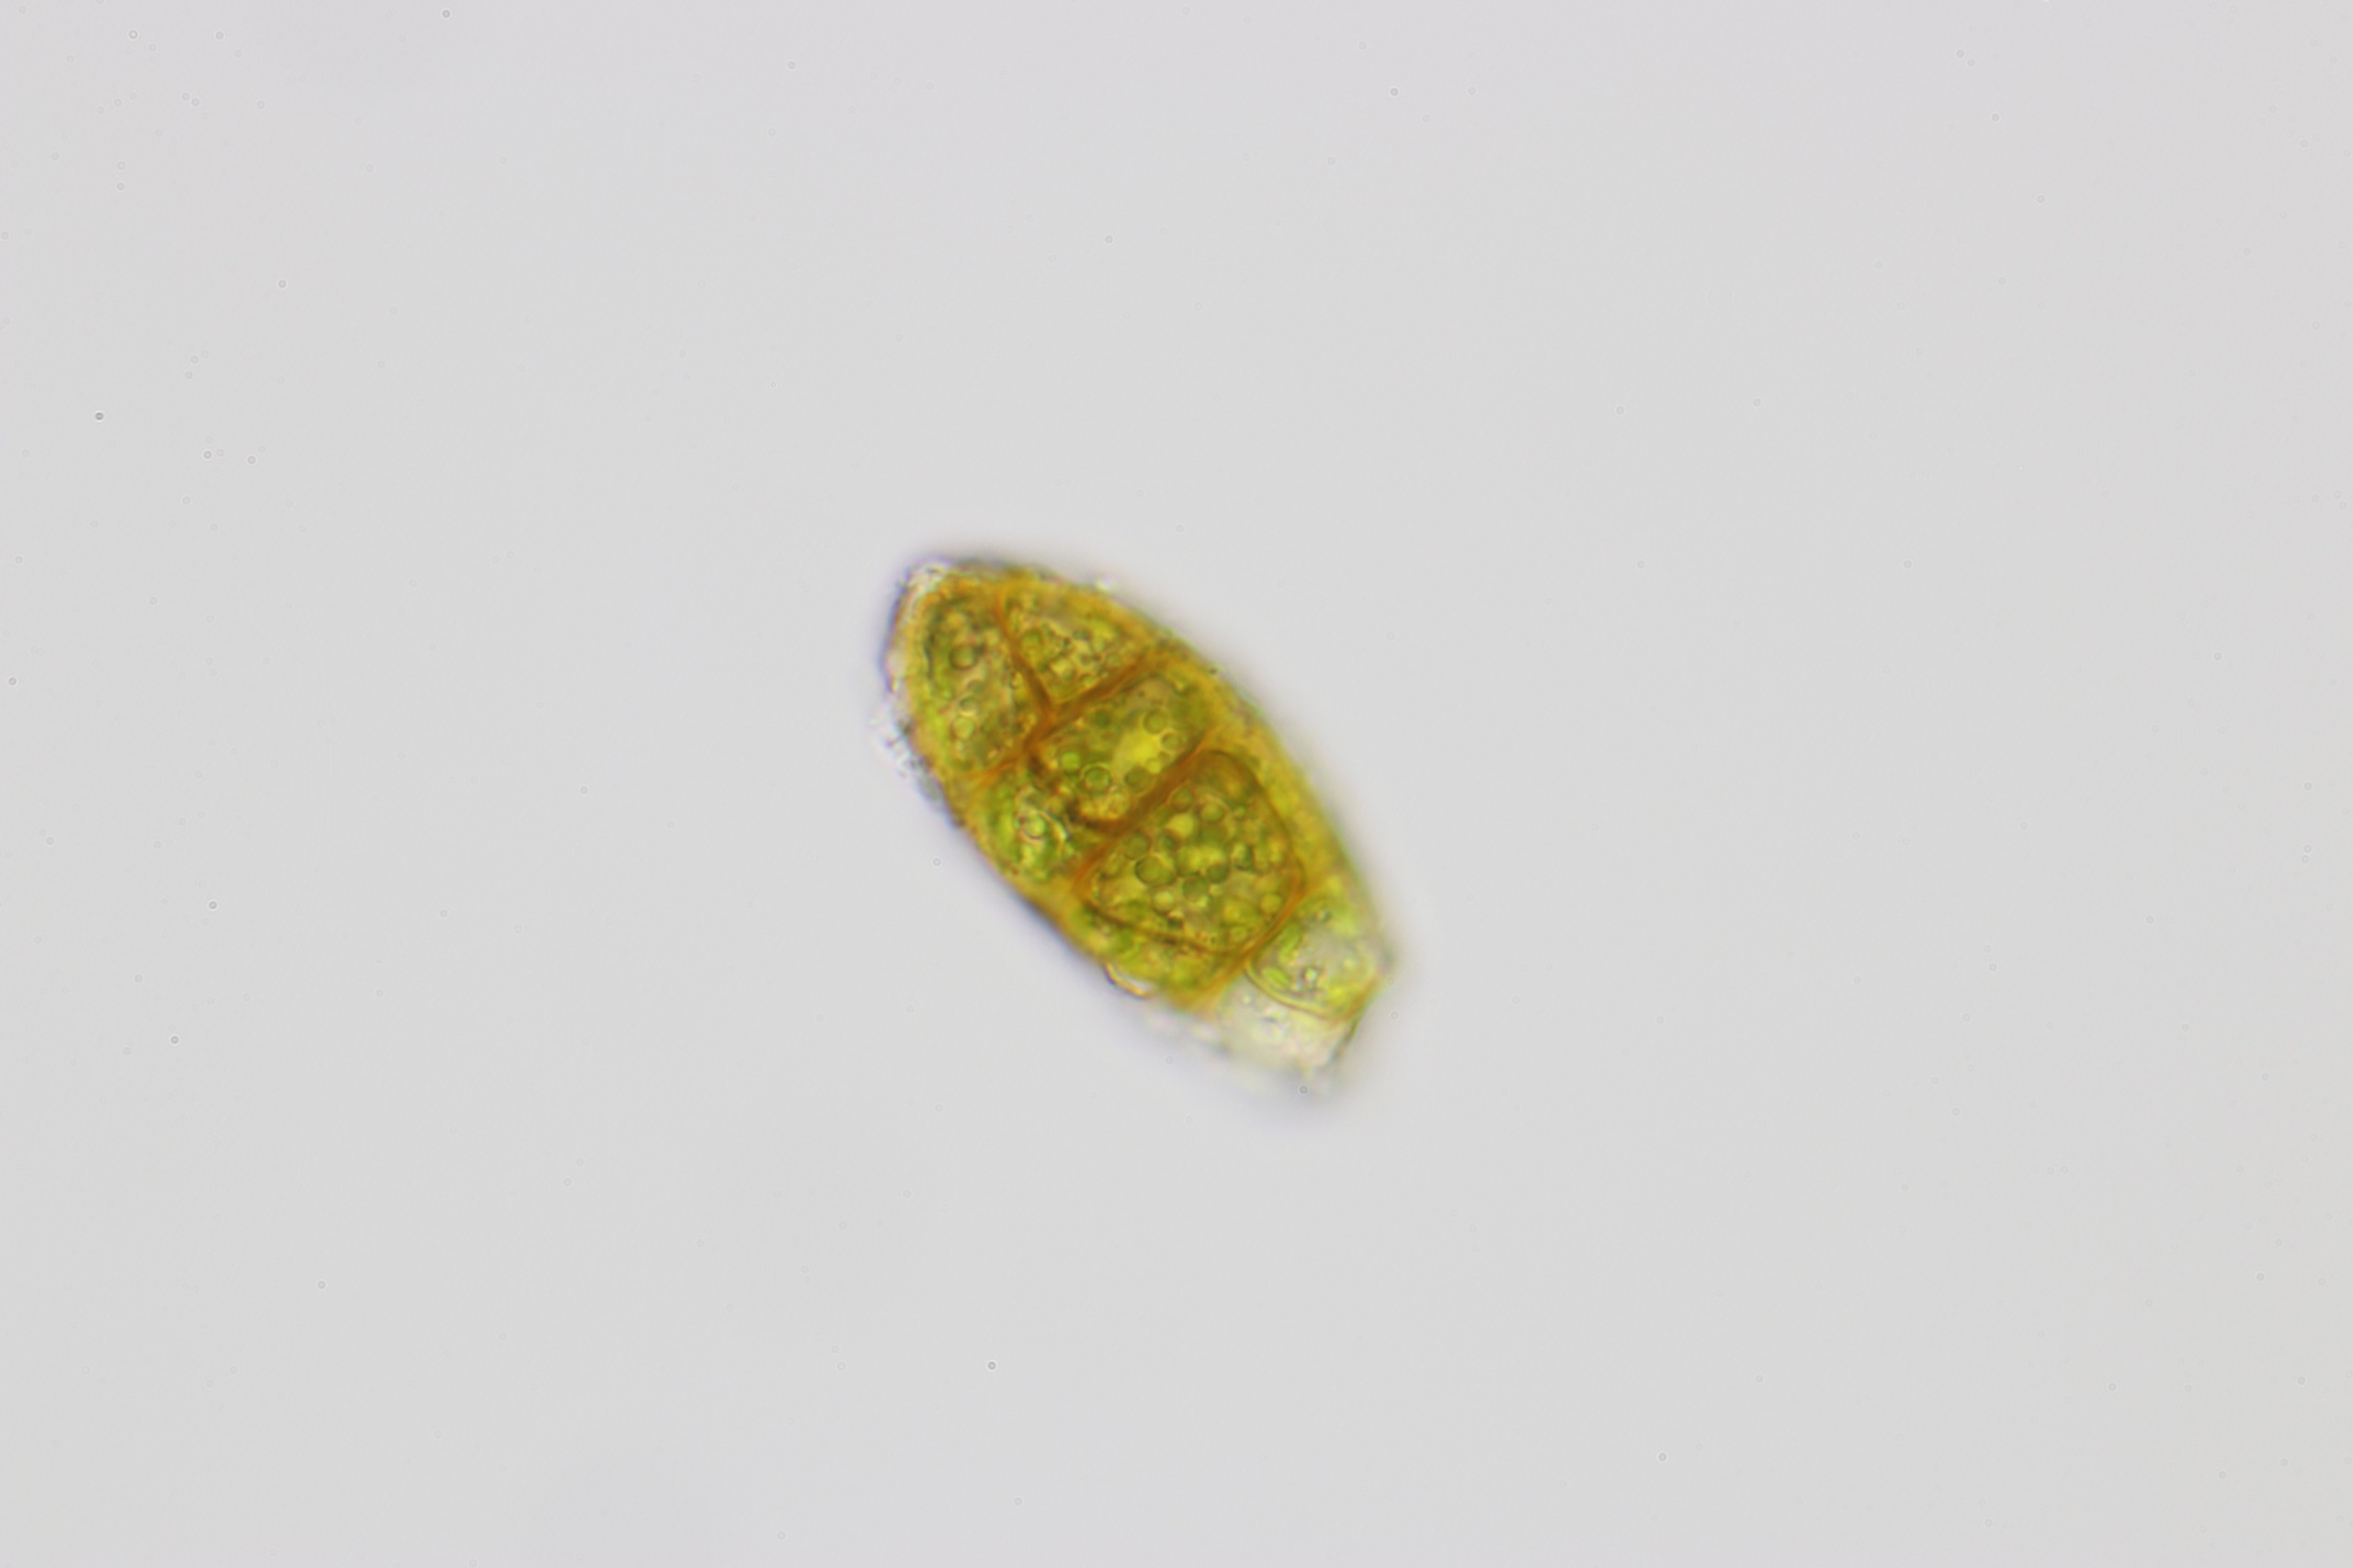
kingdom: Plantae
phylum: Bryophyta
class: Bryopsida
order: Orthotrichales
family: Orthotrichaceae
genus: Zygodon
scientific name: Zygodon viridissimus
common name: Grøn køllemos
